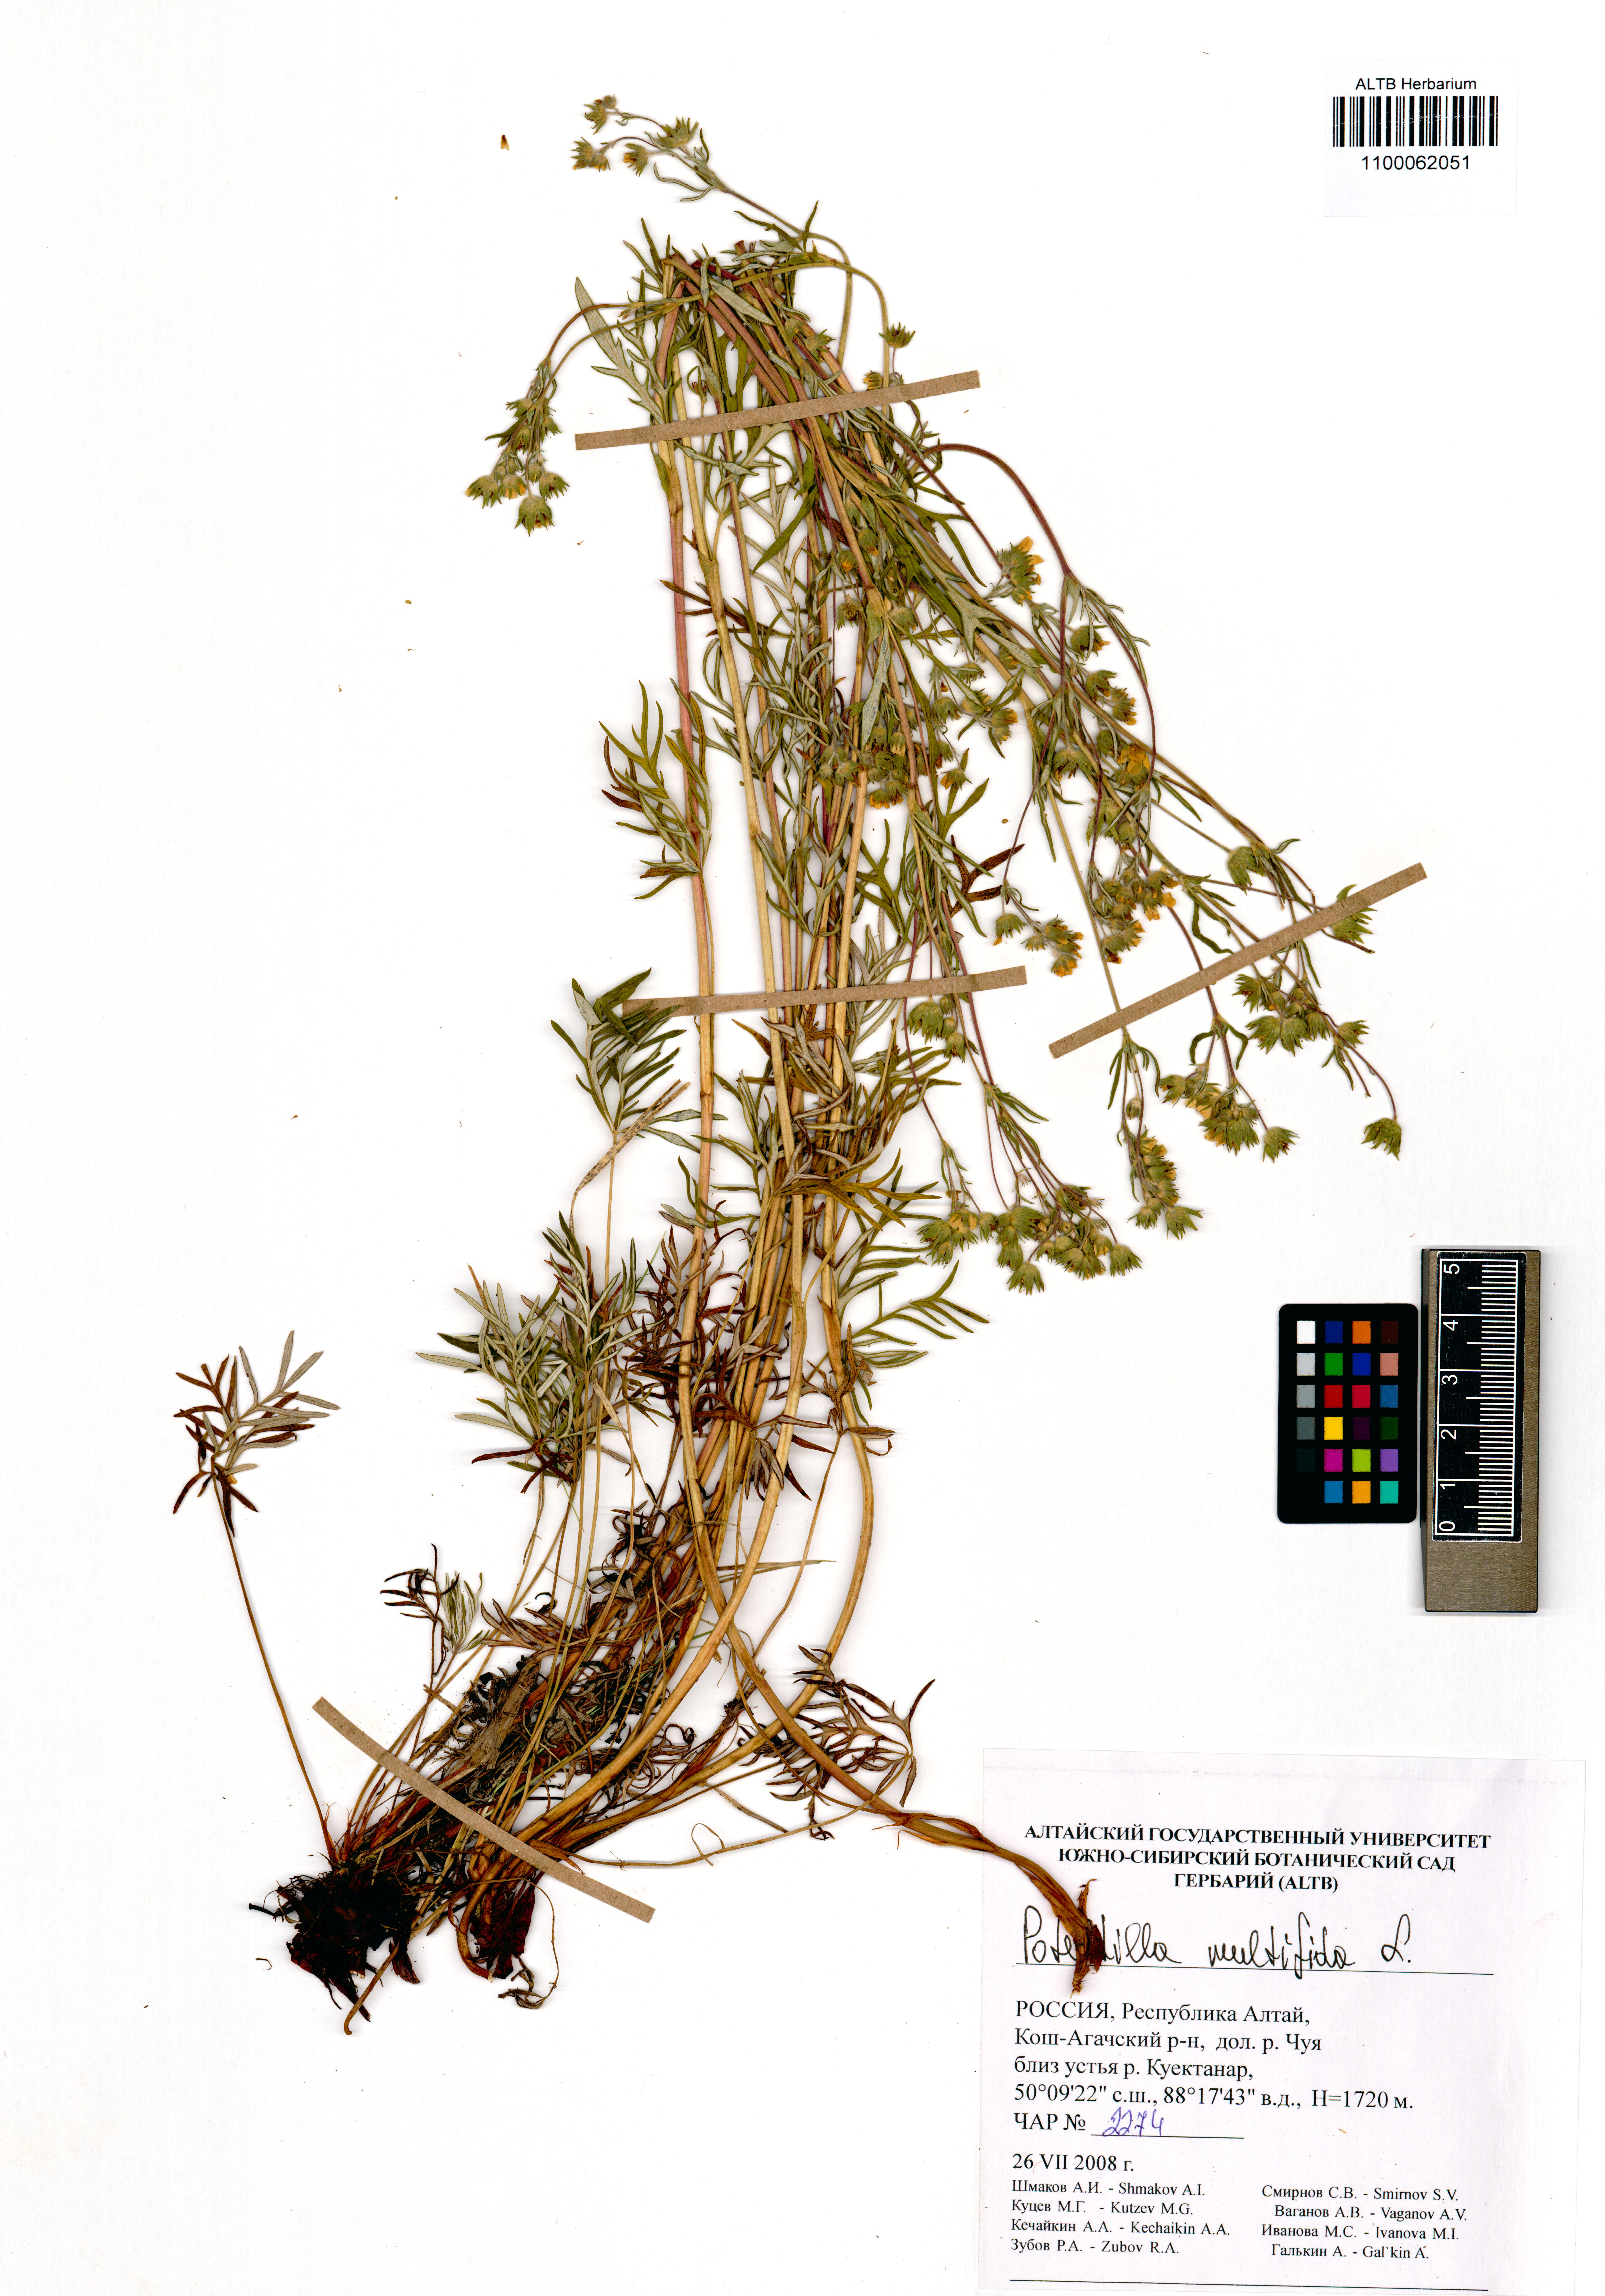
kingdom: Plantae
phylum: Tracheophyta
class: Magnoliopsida
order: Rosales
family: Rosaceae
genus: Potentilla
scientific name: Potentilla multifida
